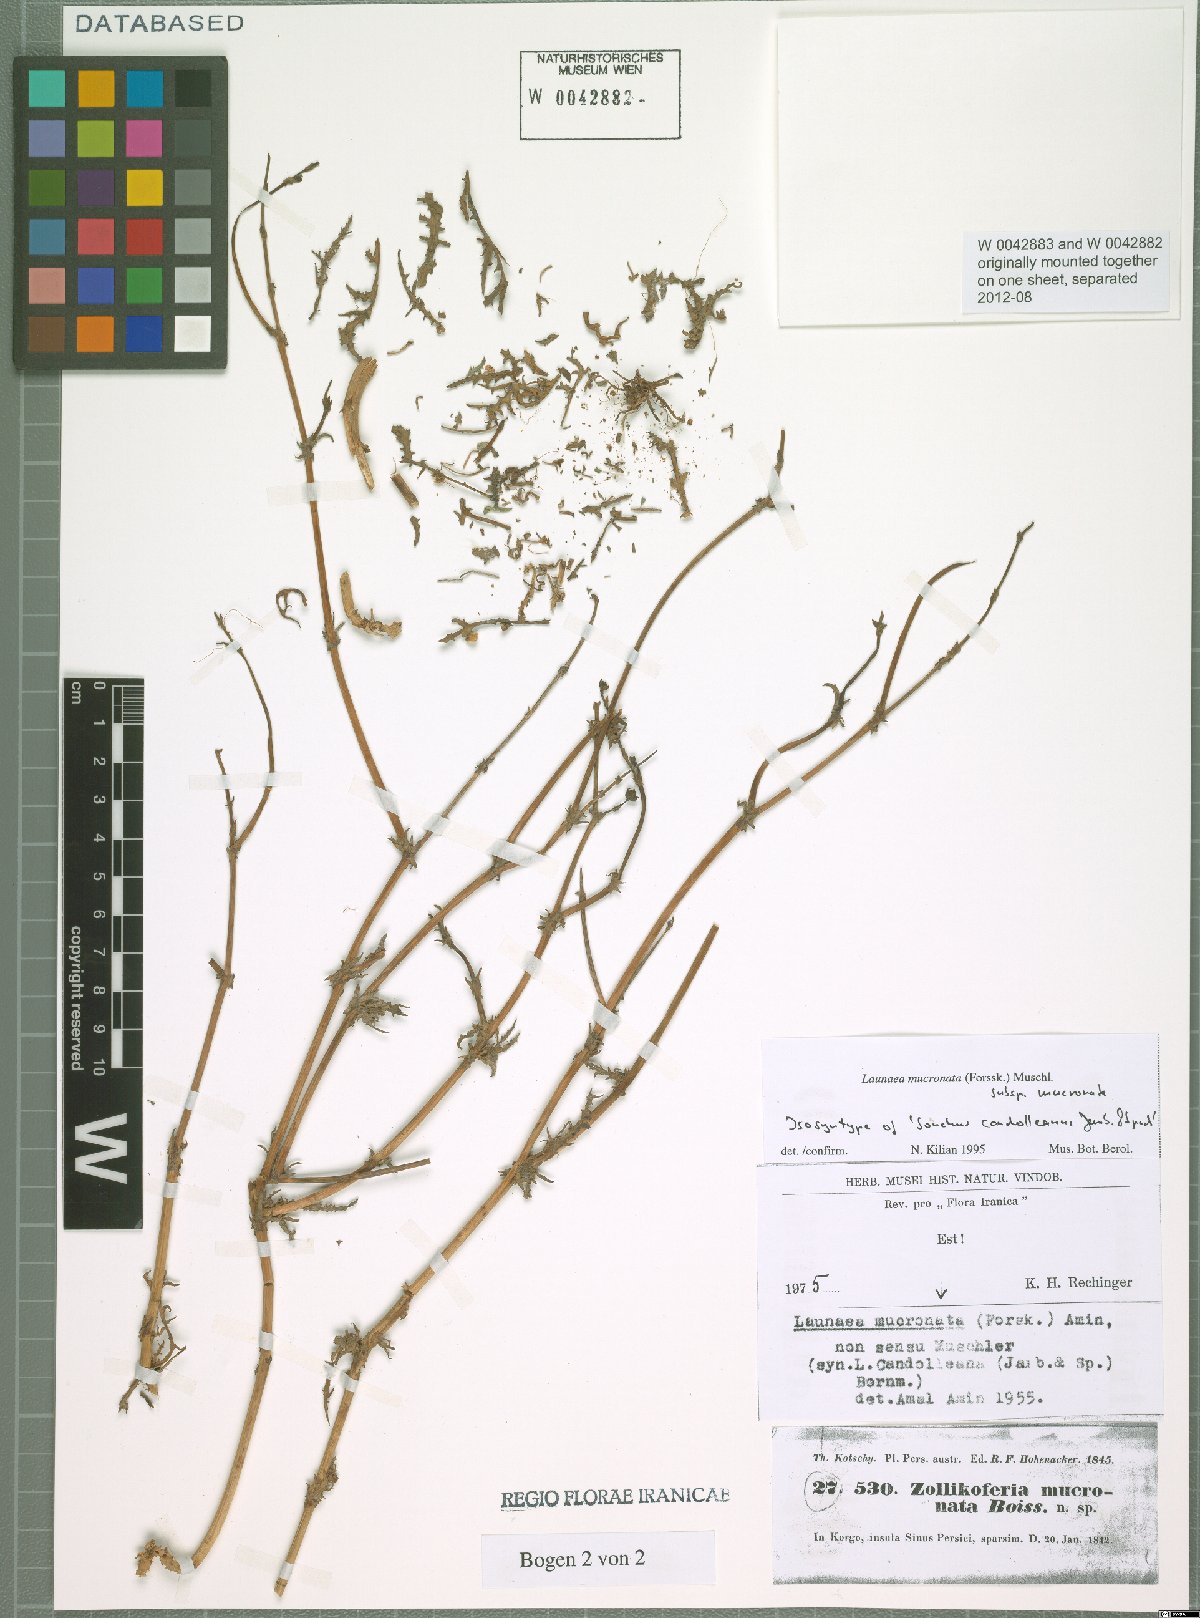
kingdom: Plantae
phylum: Tracheophyta
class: Magnoliopsida
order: Asterales
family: Asteraceae
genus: Launaea
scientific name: Launaea mucronata
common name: Mucronate launea
